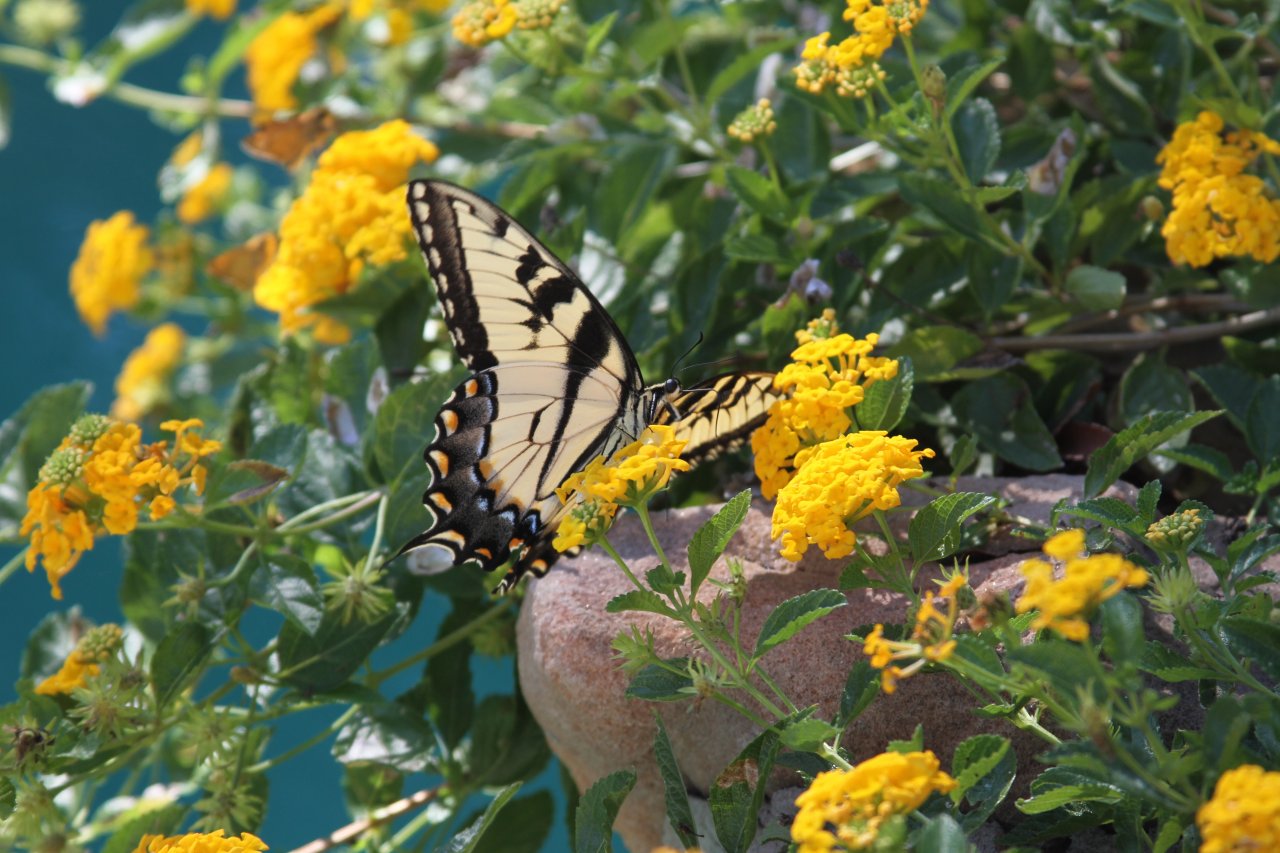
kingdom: Animalia
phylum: Arthropoda
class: Insecta
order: Lepidoptera
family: Papilionidae
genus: Pterourus
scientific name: Pterourus glaucus
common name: Eastern Tiger Swallowtail
